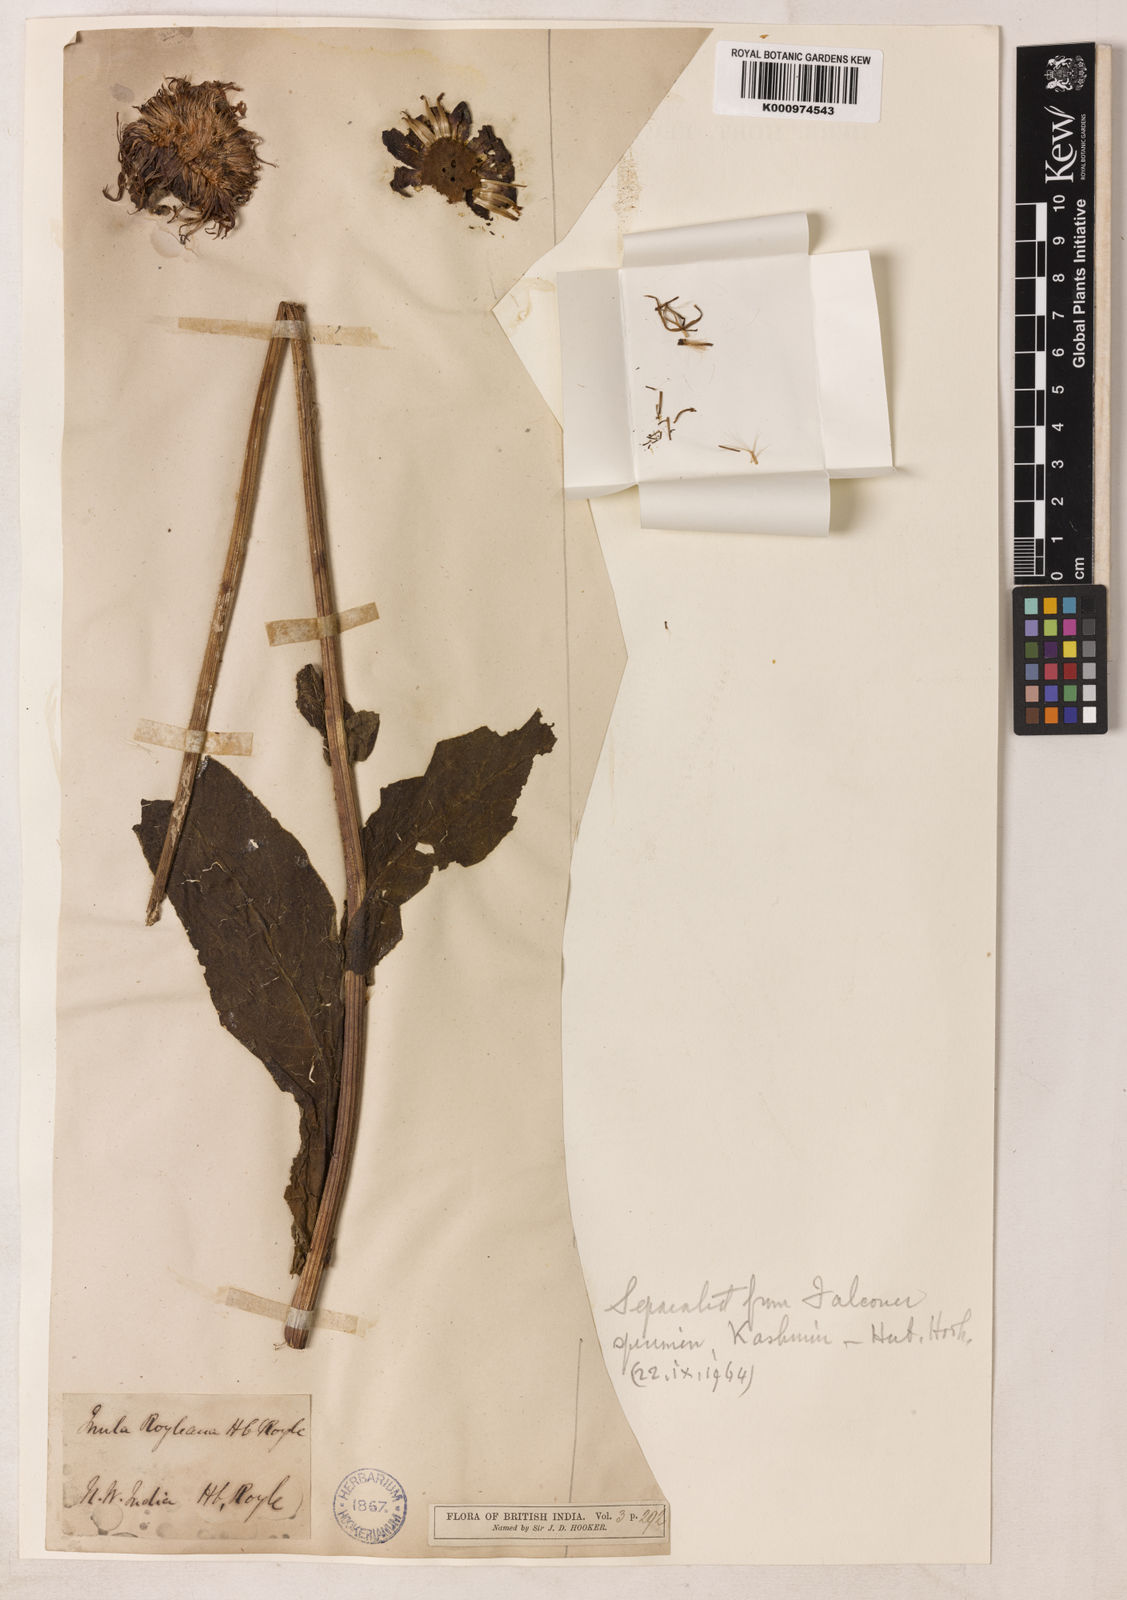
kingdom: Plantae
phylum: Tracheophyta
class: Magnoliopsida
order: Asterales
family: Asteraceae
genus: Inula
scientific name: Inula royleana
